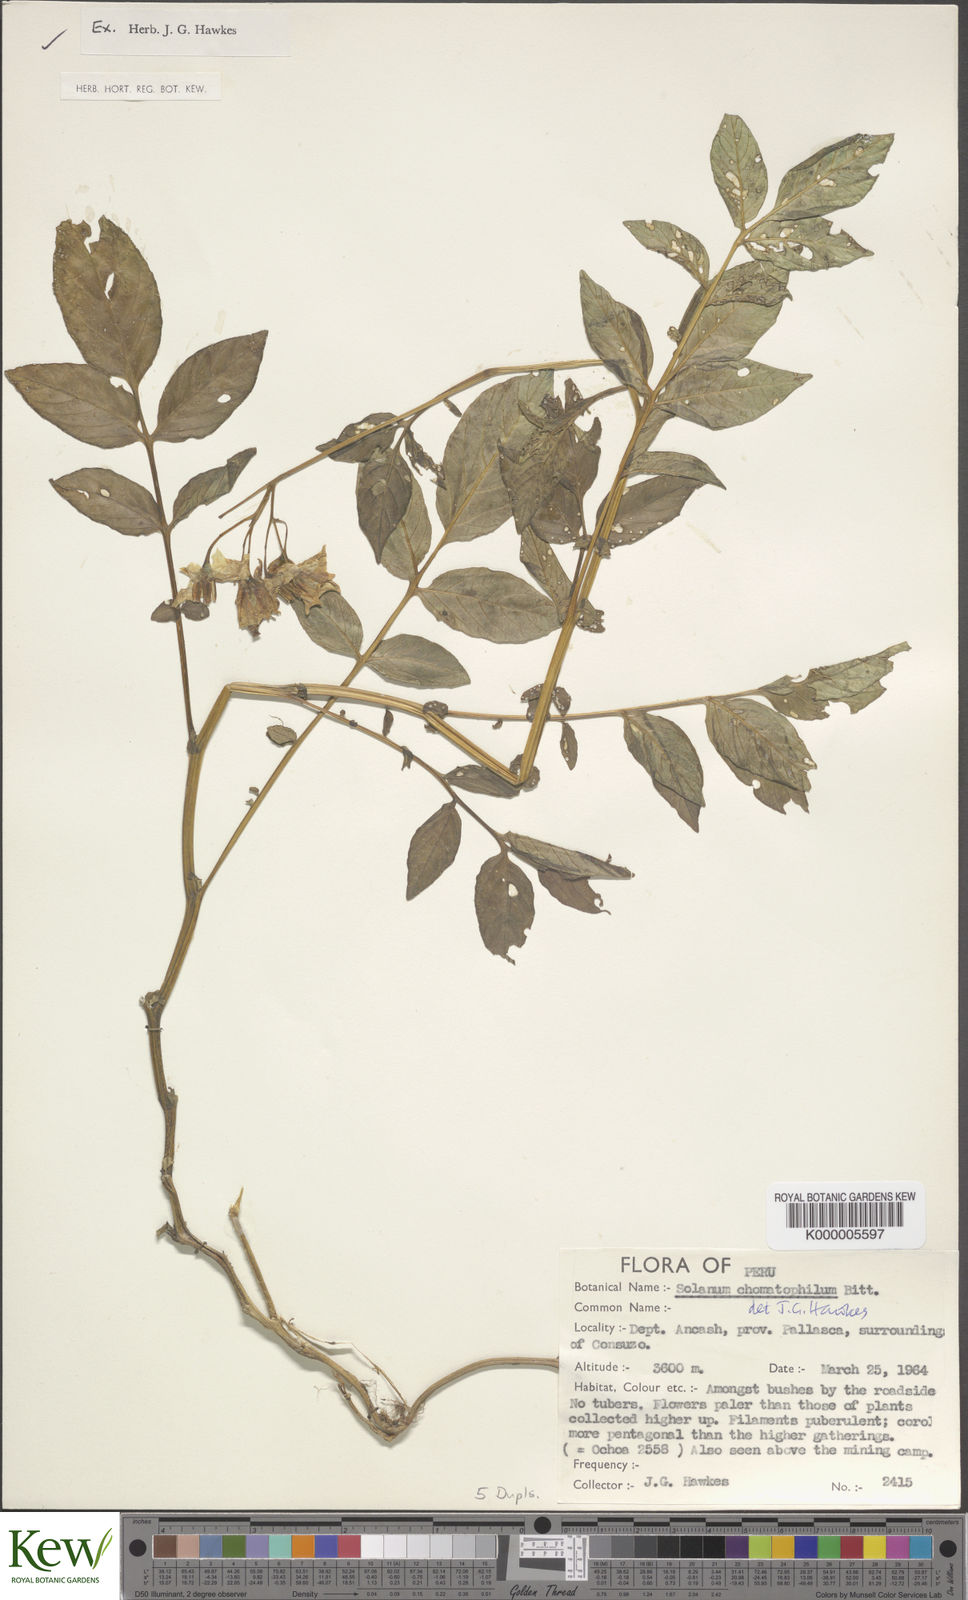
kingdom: Plantae
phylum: Tracheophyta
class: Magnoliopsida
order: Solanales
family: Solanaceae
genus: Solanum
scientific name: Solanum chomatophilum
